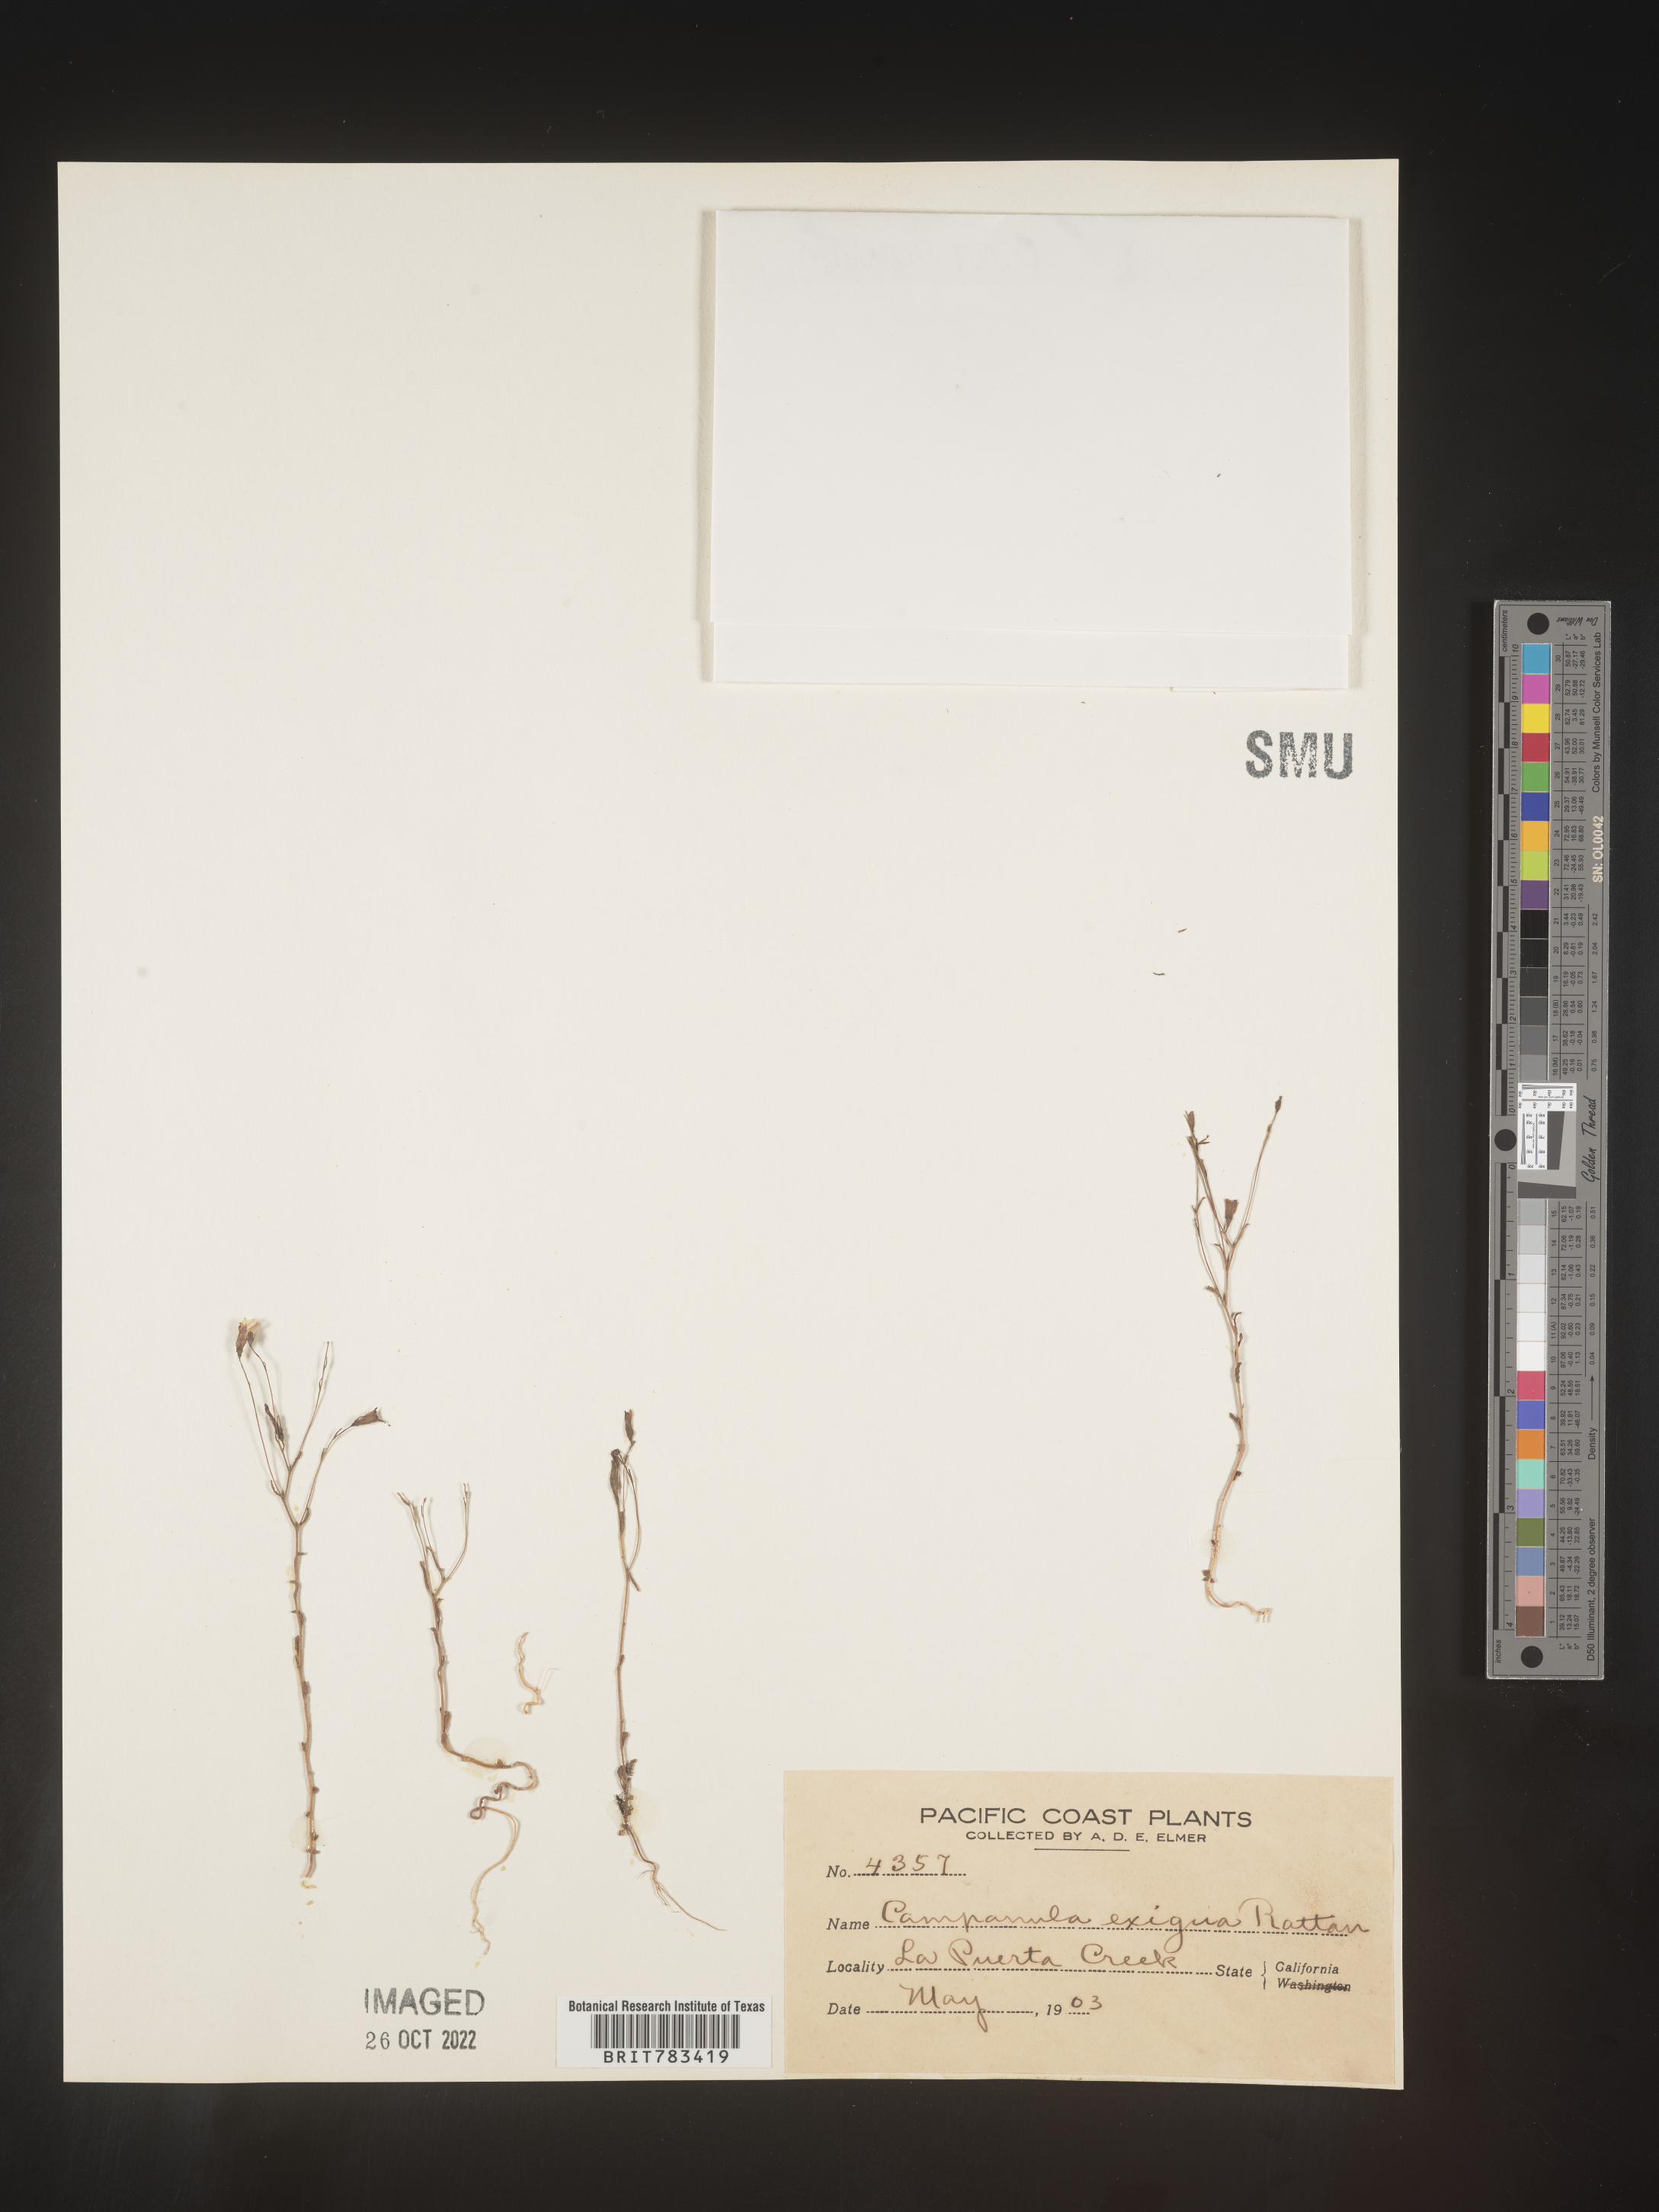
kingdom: Plantae
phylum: Tracheophyta
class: Magnoliopsida
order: Asterales
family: Campanulaceae
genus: Campanula
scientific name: Campanula
